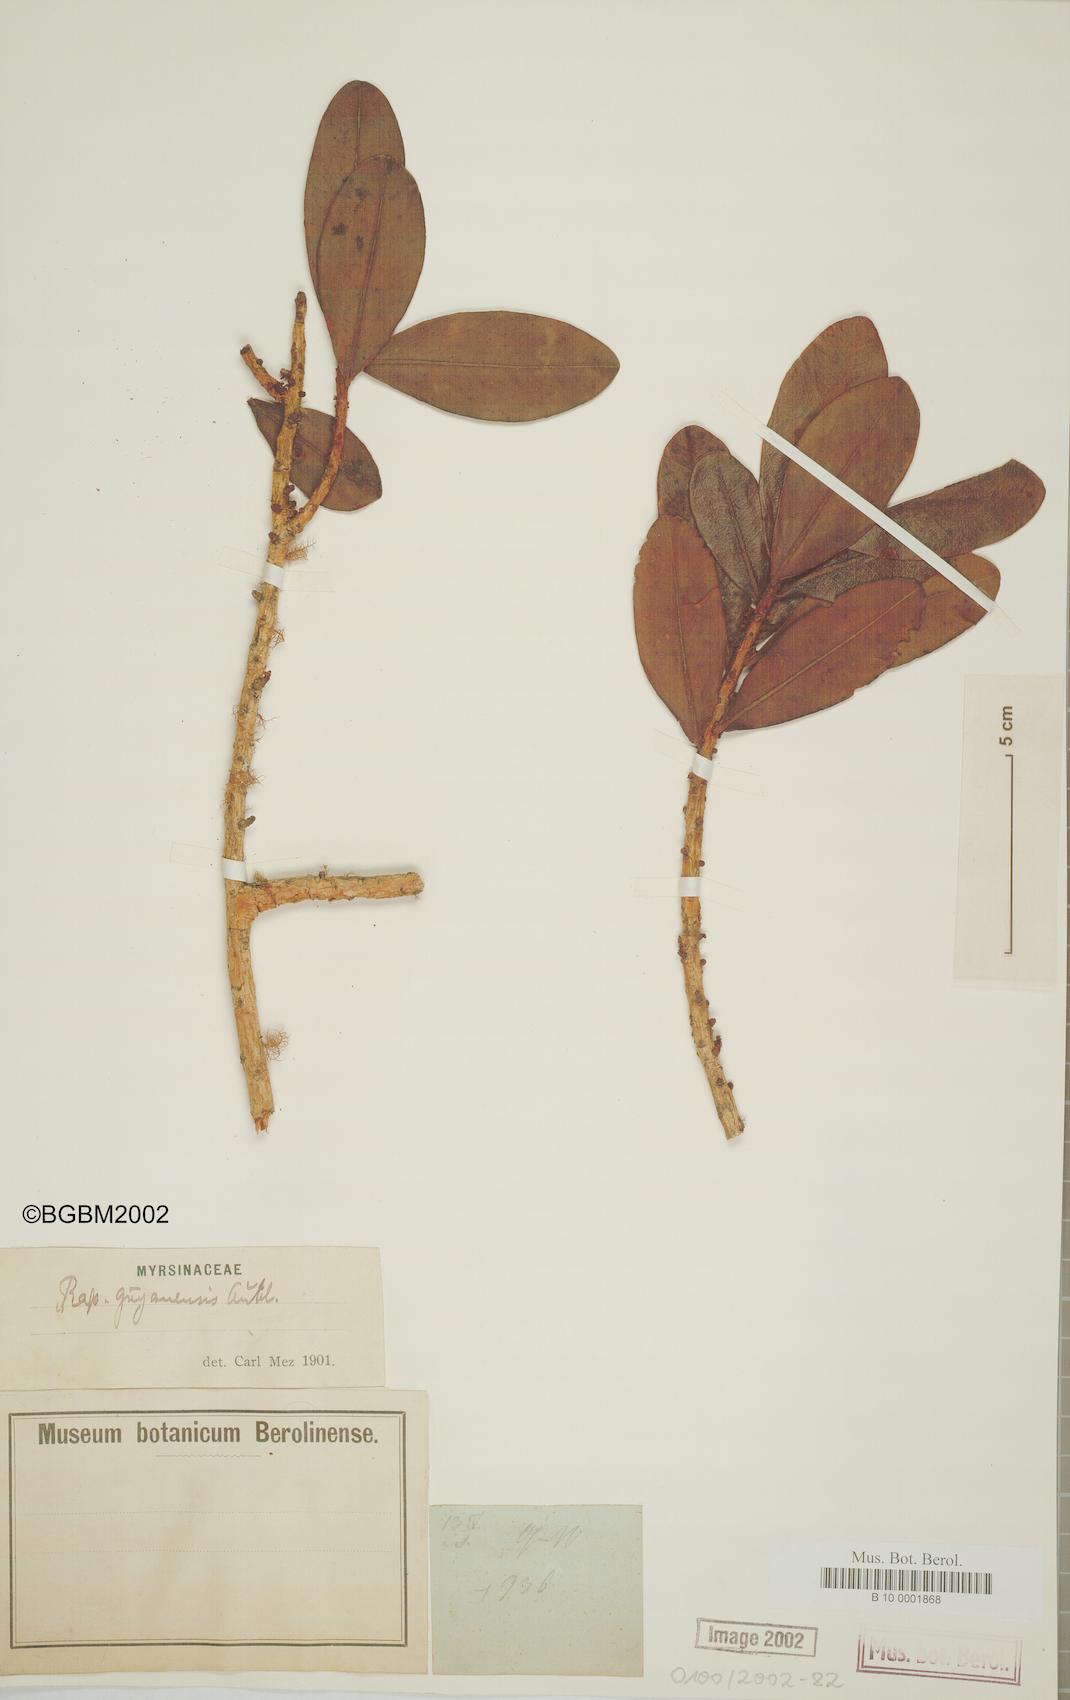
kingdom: Plantae
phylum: Tracheophyta
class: Magnoliopsida
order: Ericales
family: Primulaceae
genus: Myrsine
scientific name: Myrsine guianensis
